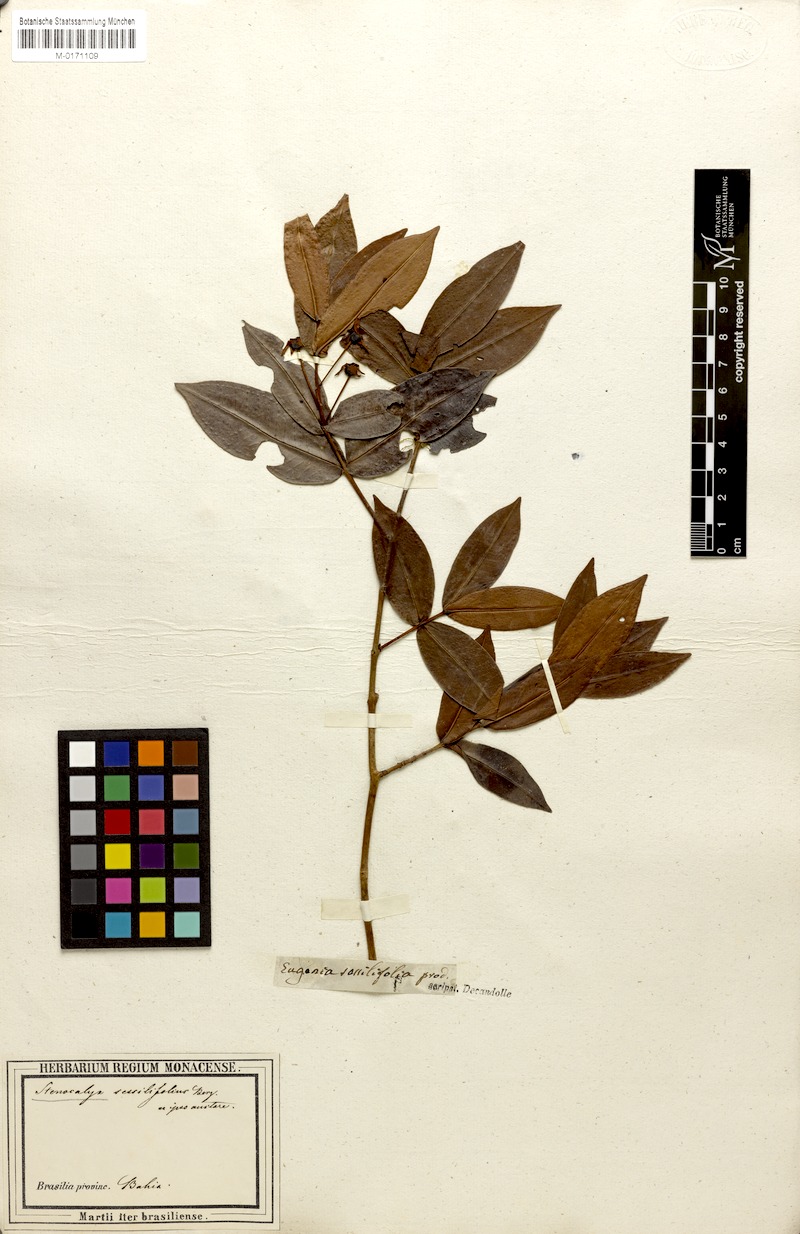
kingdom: Plantae
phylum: Tracheophyta
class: Magnoliopsida
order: Myrtales
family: Myrtaceae
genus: Eugenia
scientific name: Eugenia sessilifolia
